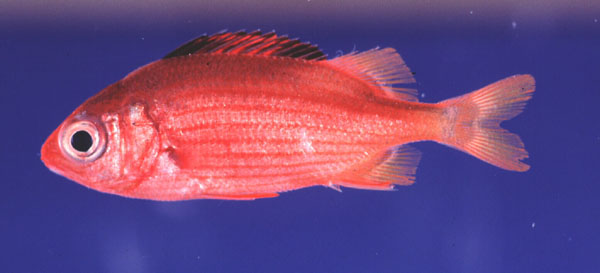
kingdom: Animalia
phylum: Chordata
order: Beryciformes
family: Holocentridae
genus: Sargocentron
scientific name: Sargocentron
